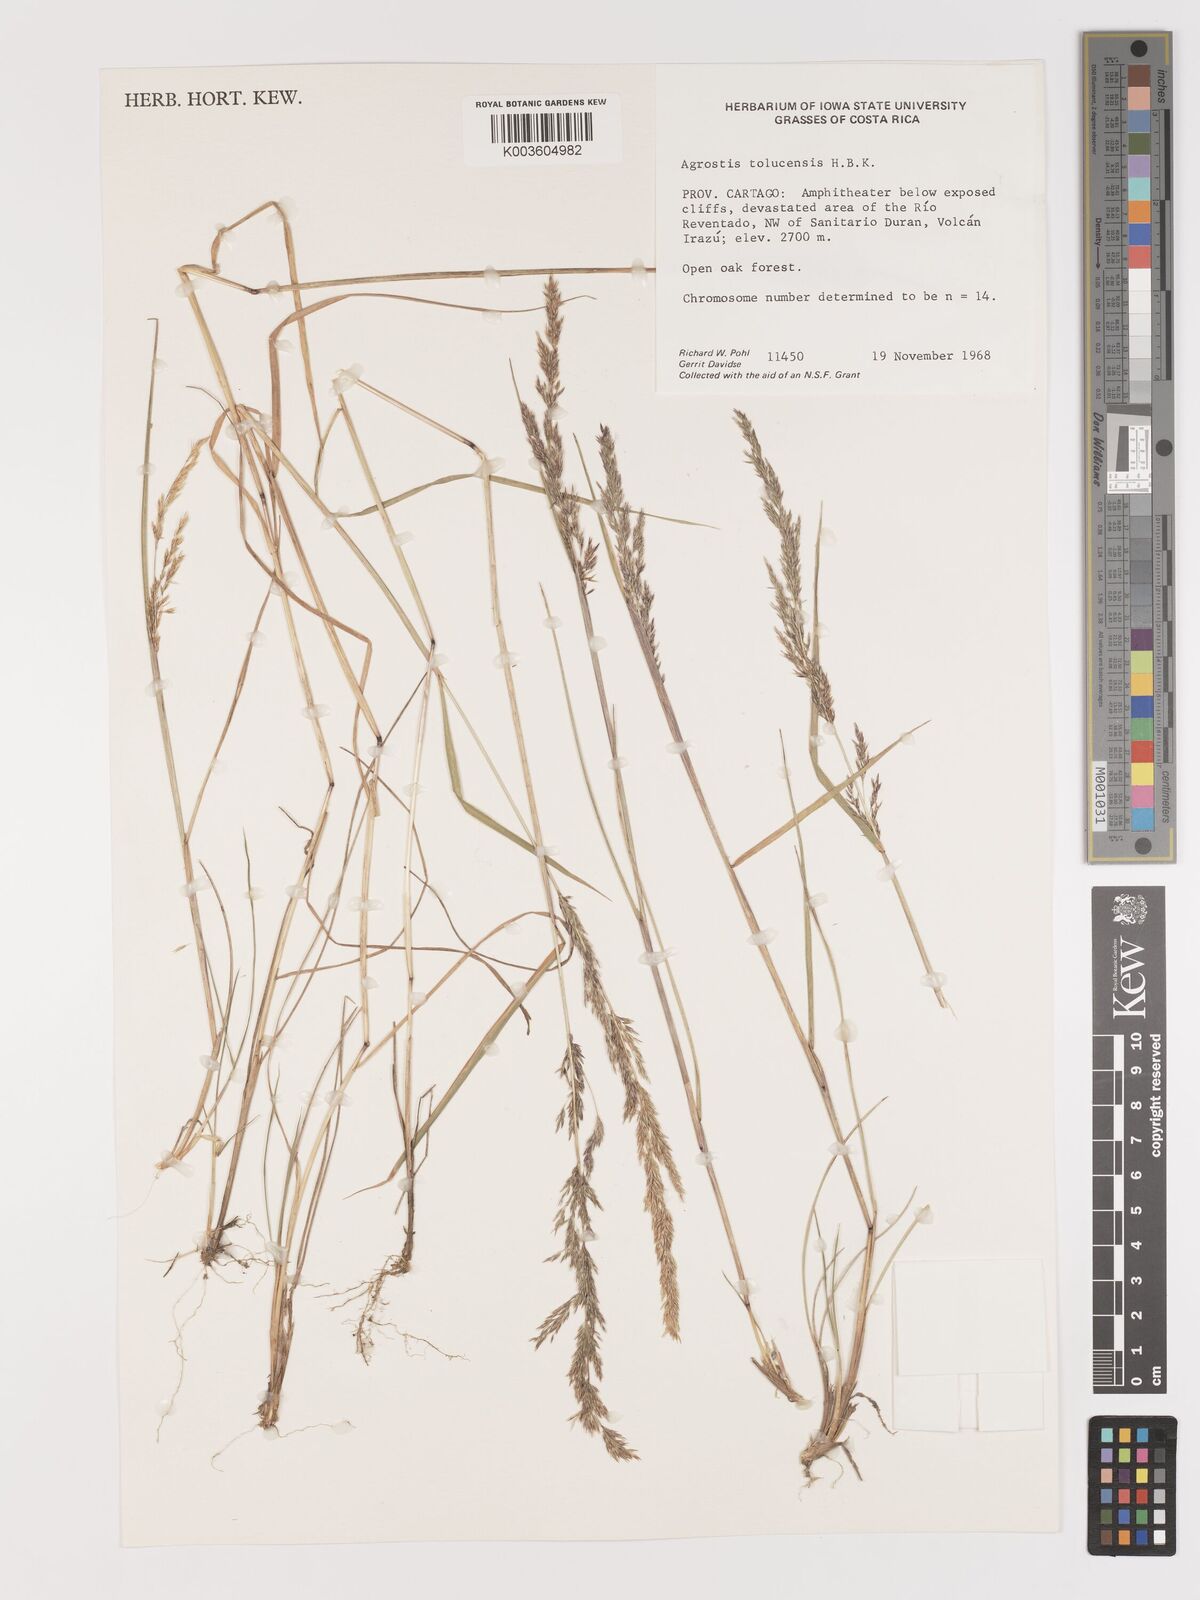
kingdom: Plantae
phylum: Tracheophyta
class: Liliopsida
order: Poales
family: Poaceae
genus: Agrostis
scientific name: Agrostis tolucensis
